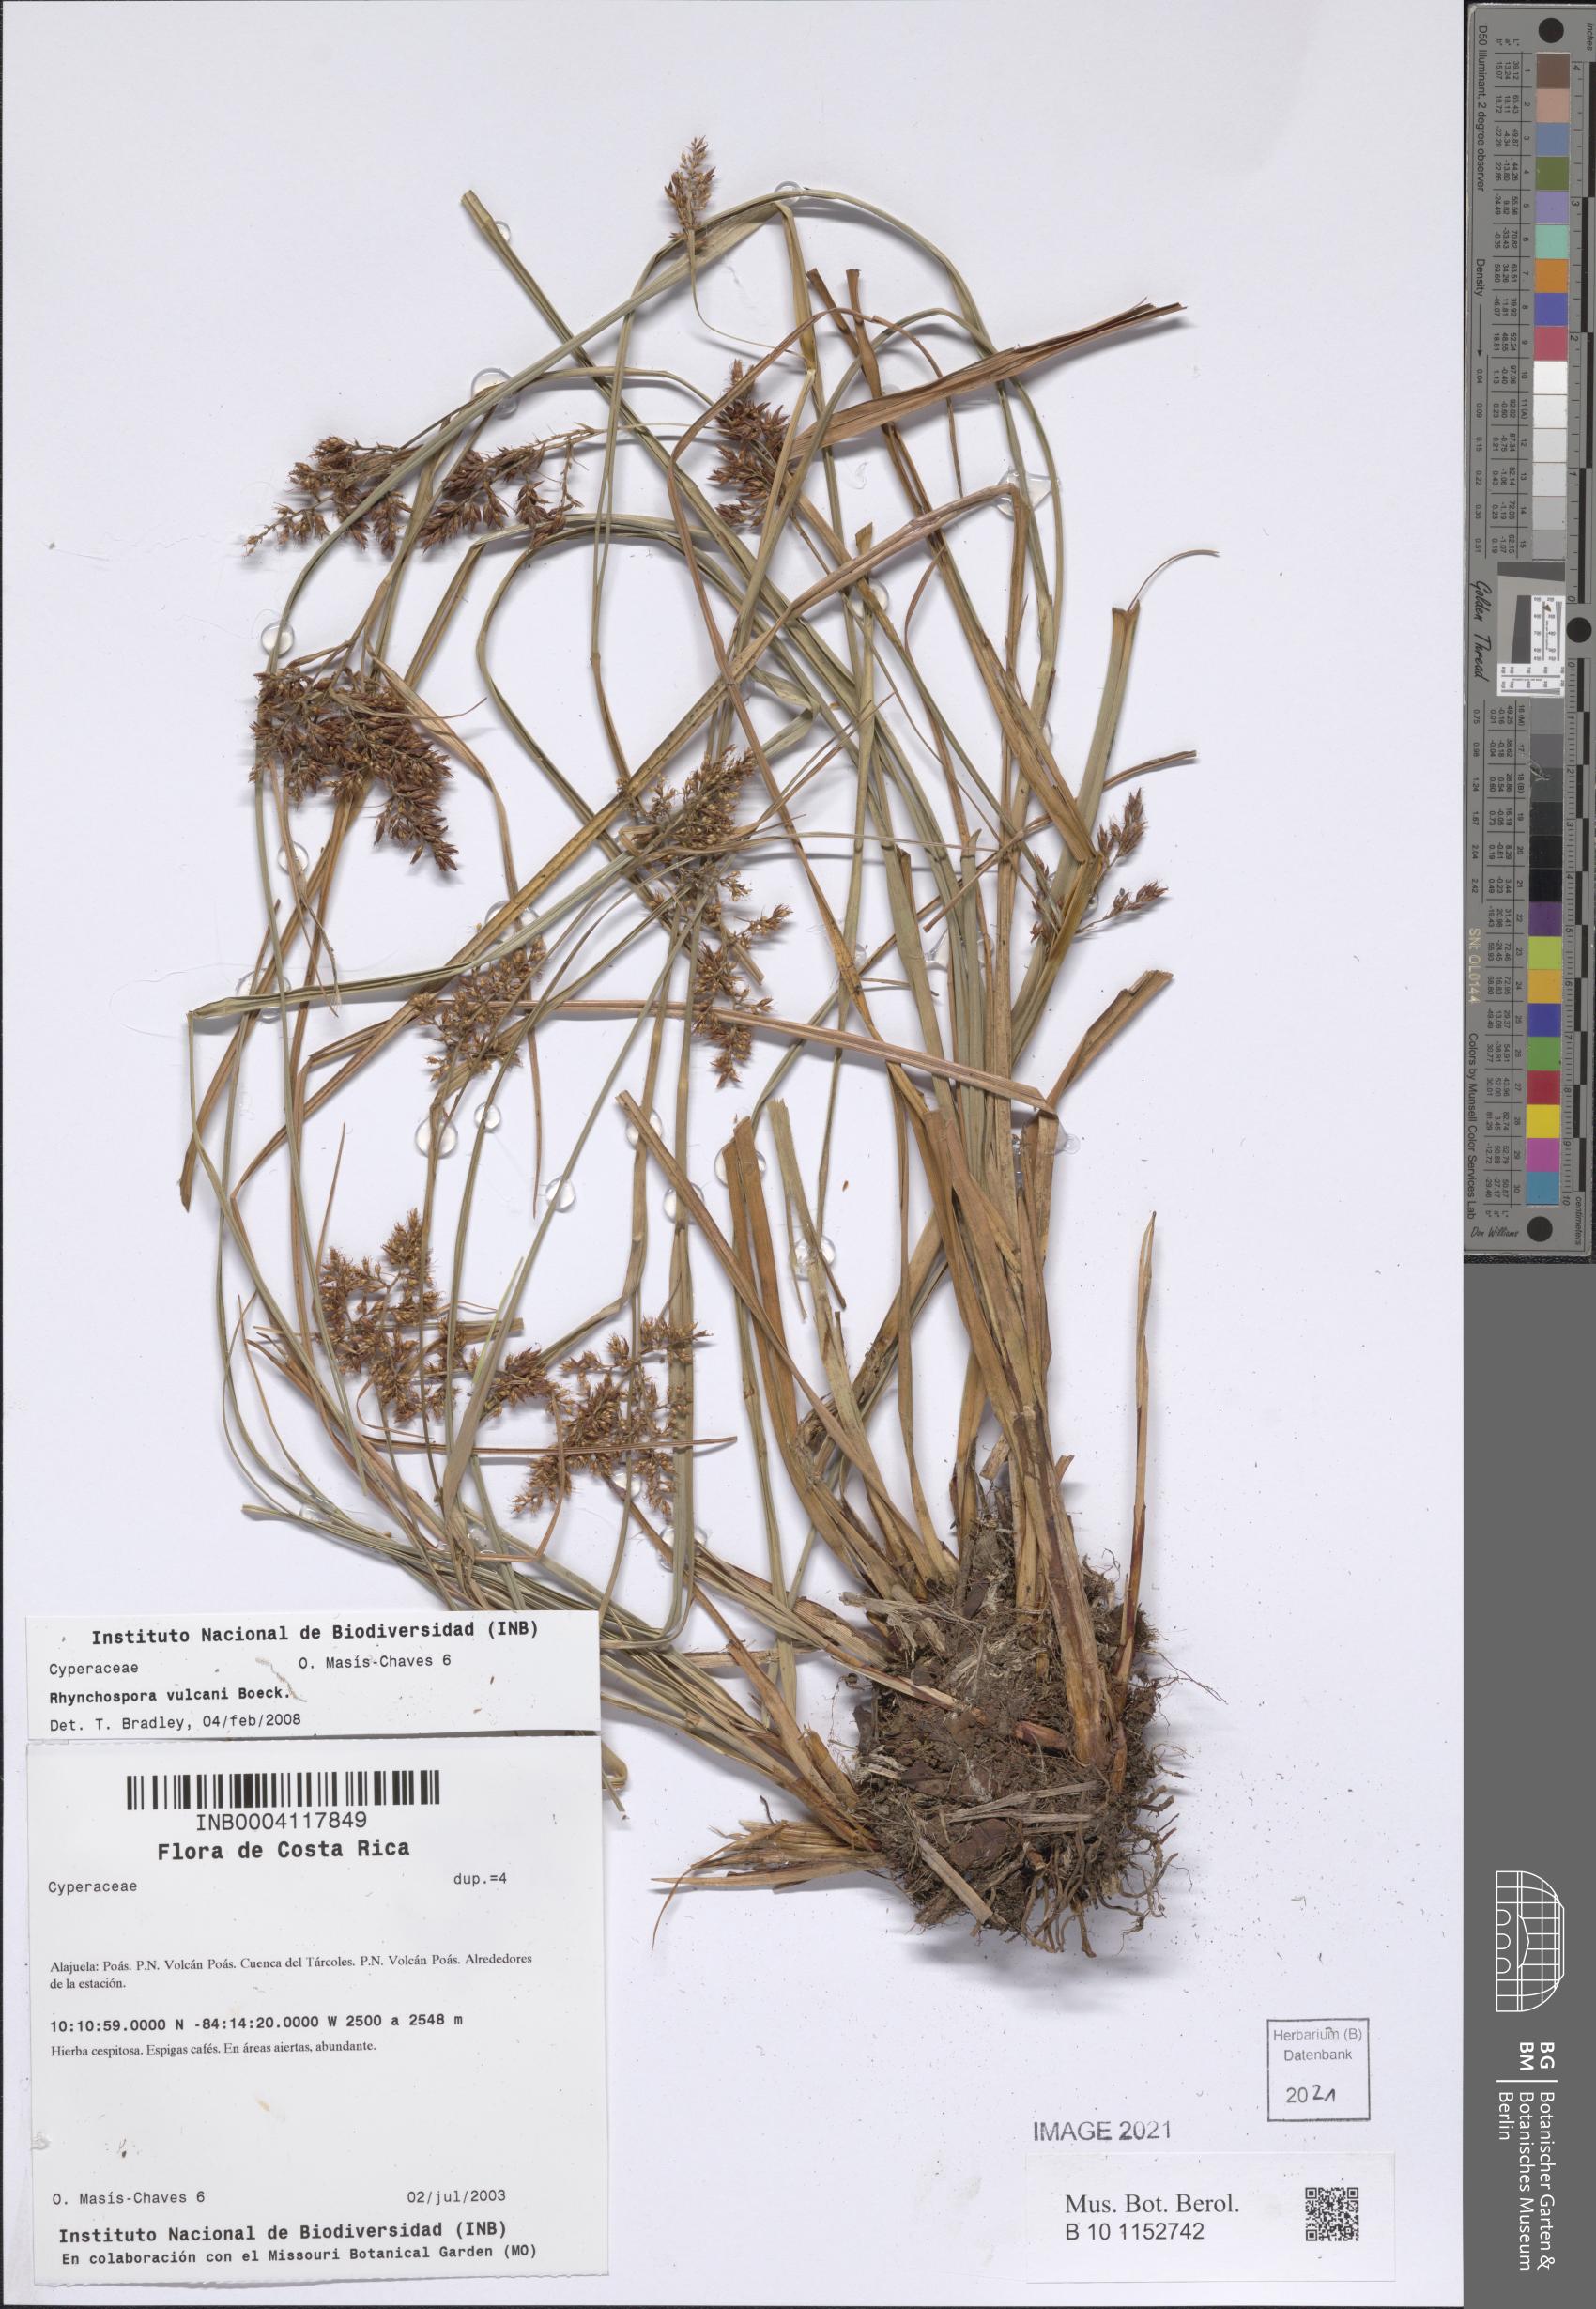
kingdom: Plantae
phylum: Tracheophyta
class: Liliopsida
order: Poales
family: Cyperaceae
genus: Rhynchospora
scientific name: Rhynchospora vulcani
